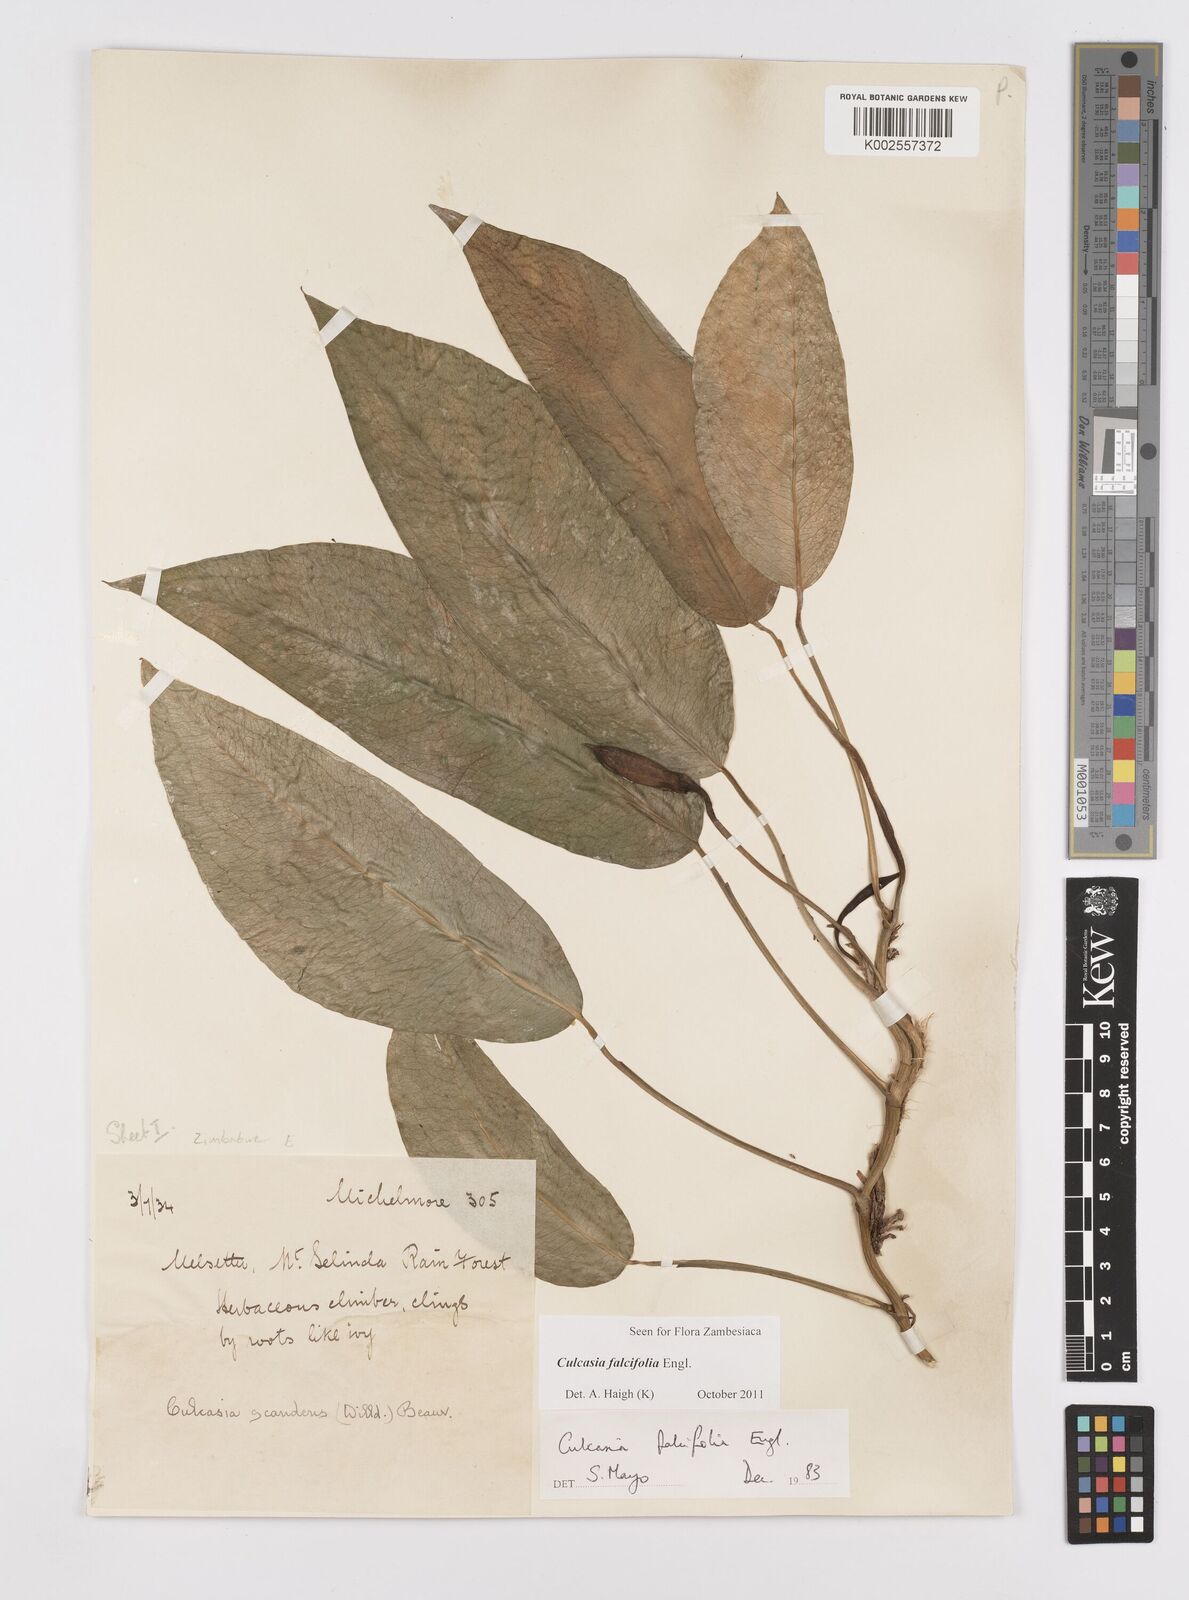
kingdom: Plantae
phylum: Tracheophyta
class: Liliopsida
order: Alismatales
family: Araceae
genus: Culcasia
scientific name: Culcasia falcifolia
